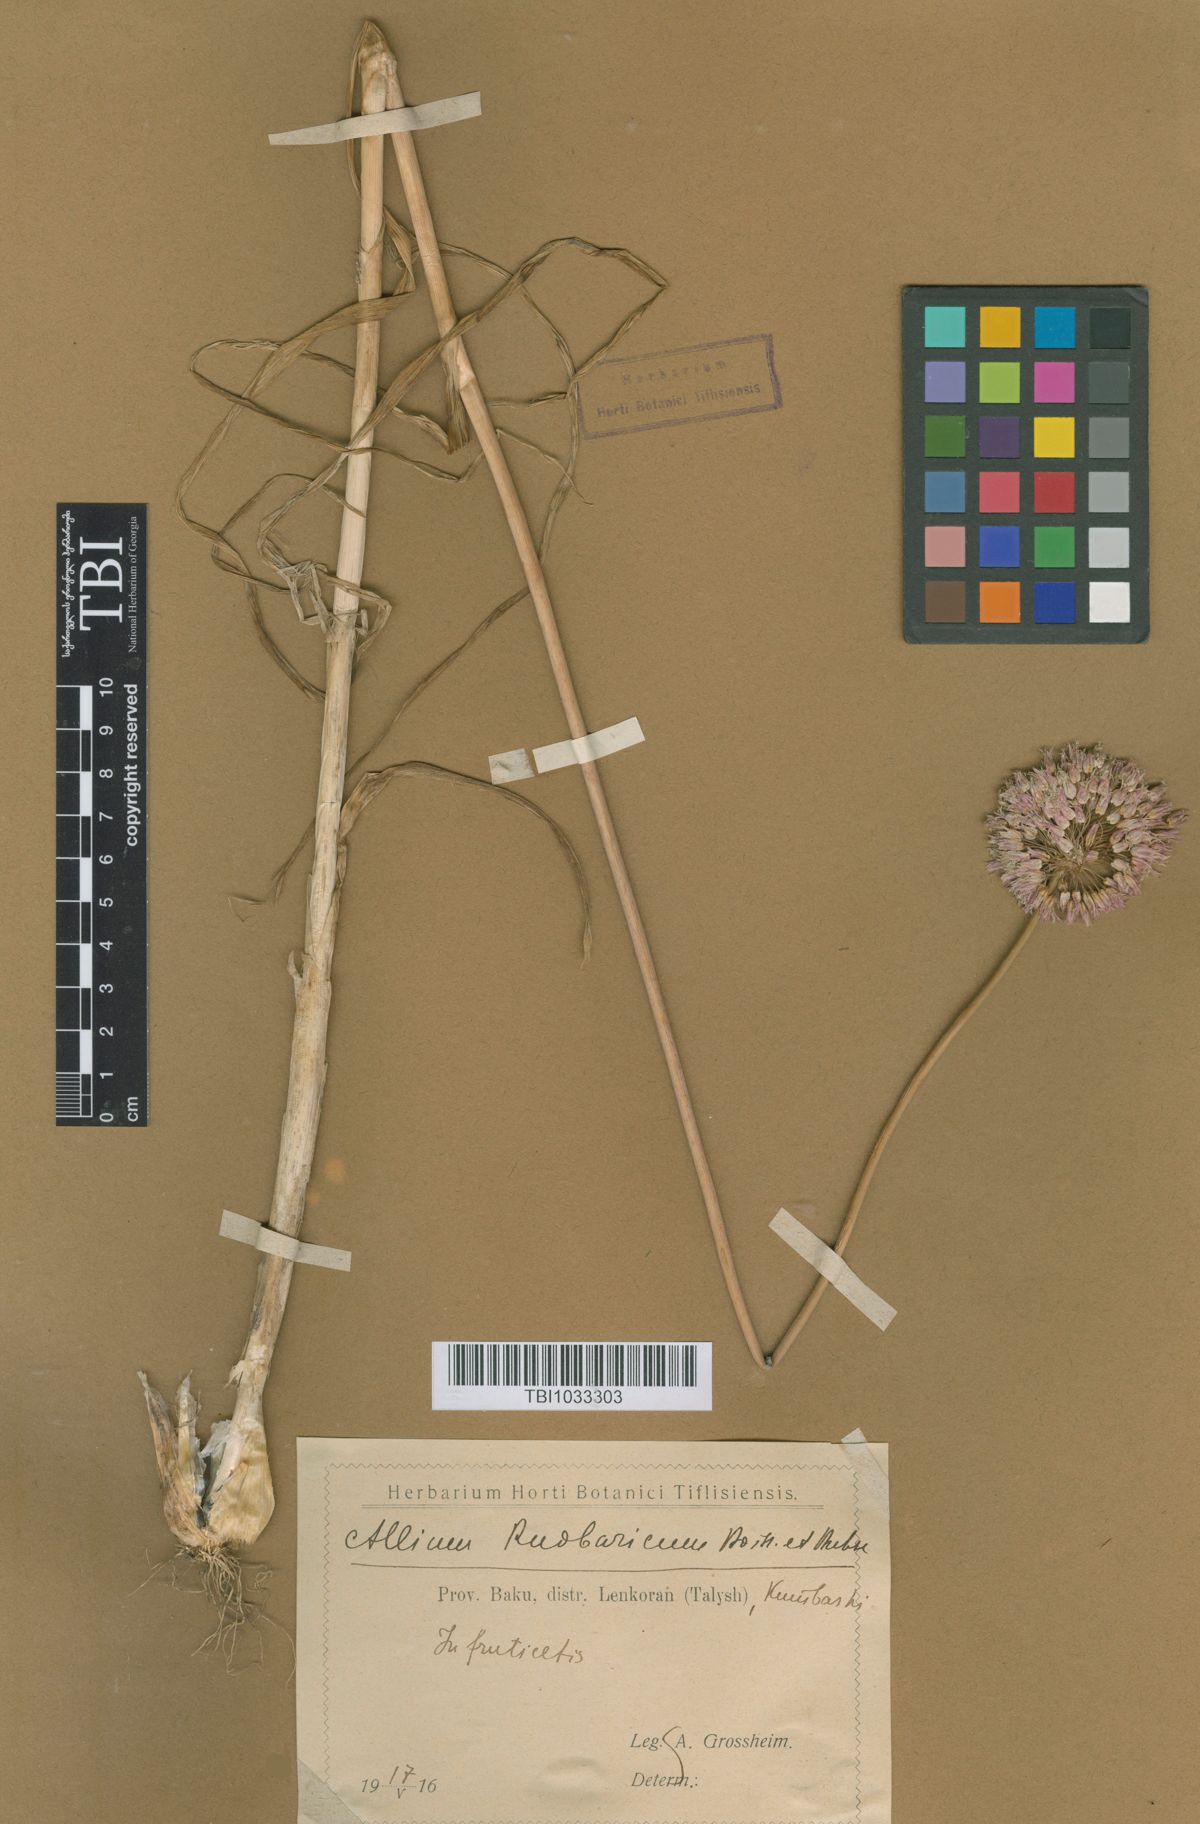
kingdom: Plantae
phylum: Tracheophyta
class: Liliopsida
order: Asparagales
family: Amaryllidaceae
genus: Allium
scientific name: Allium erubescens
